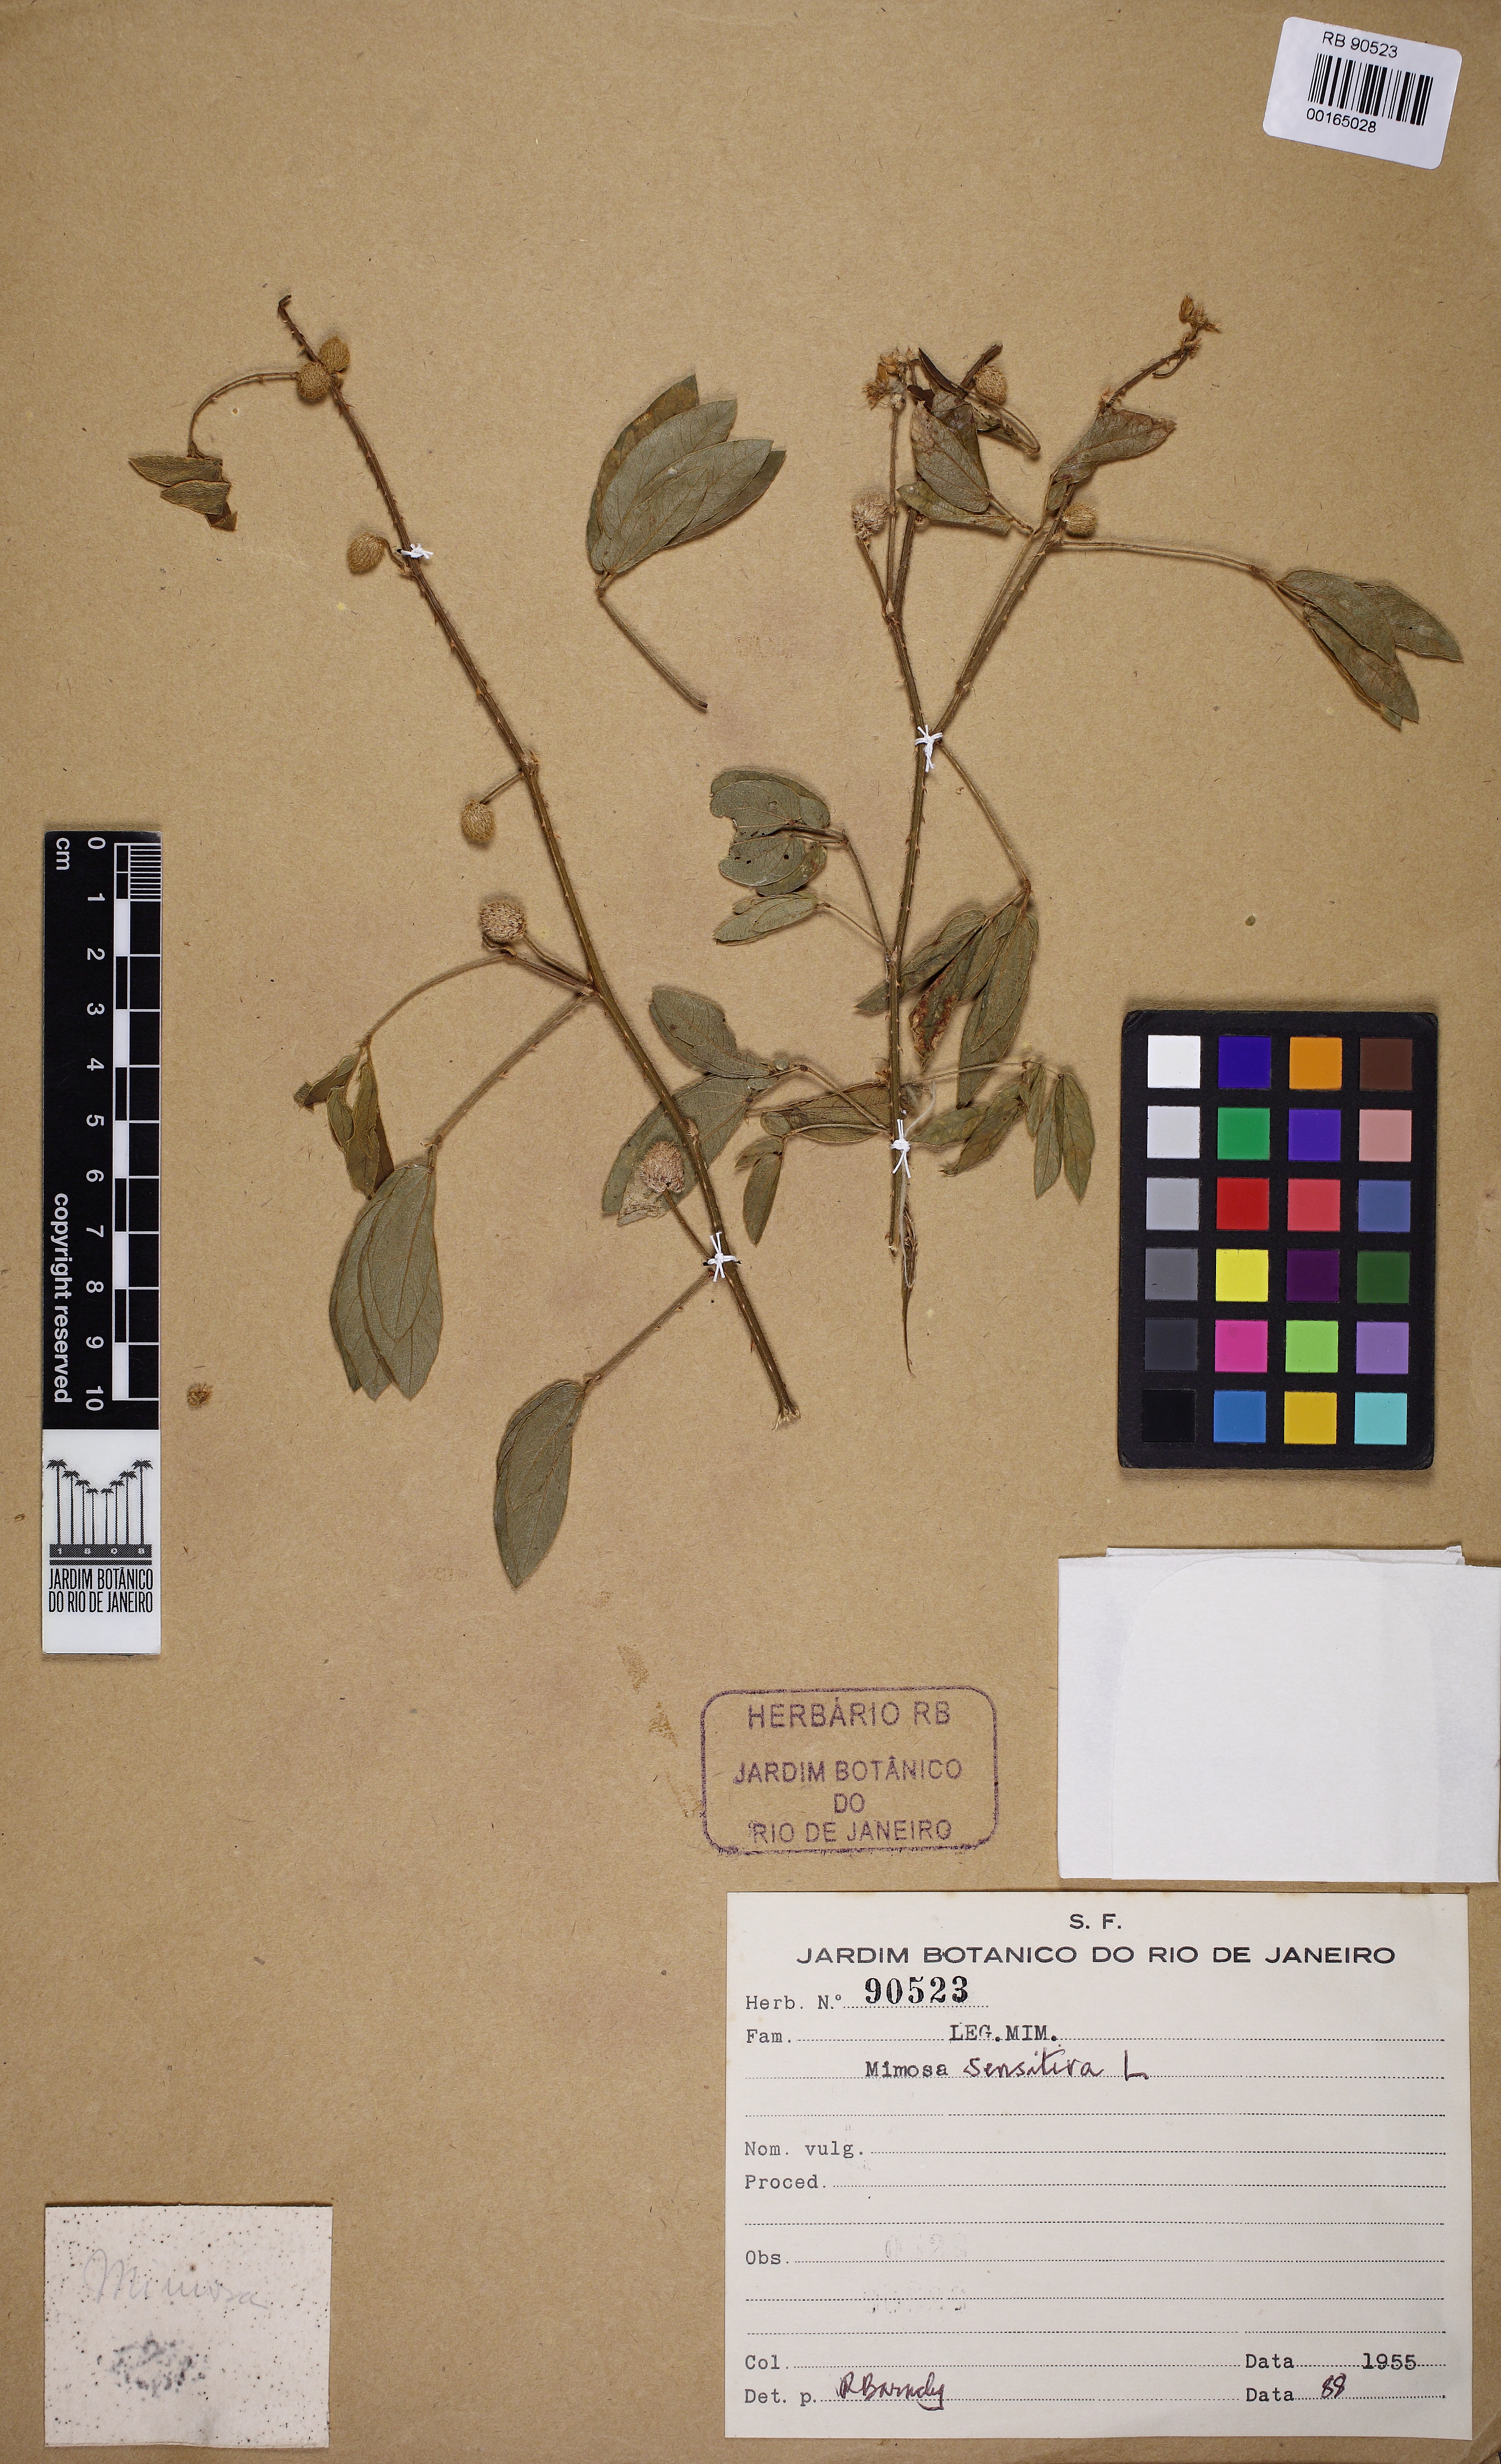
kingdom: Plantae
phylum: Tracheophyta
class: Magnoliopsida
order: Fabales
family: Fabaceae
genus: Mimosa
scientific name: Mimosa sensitiva
